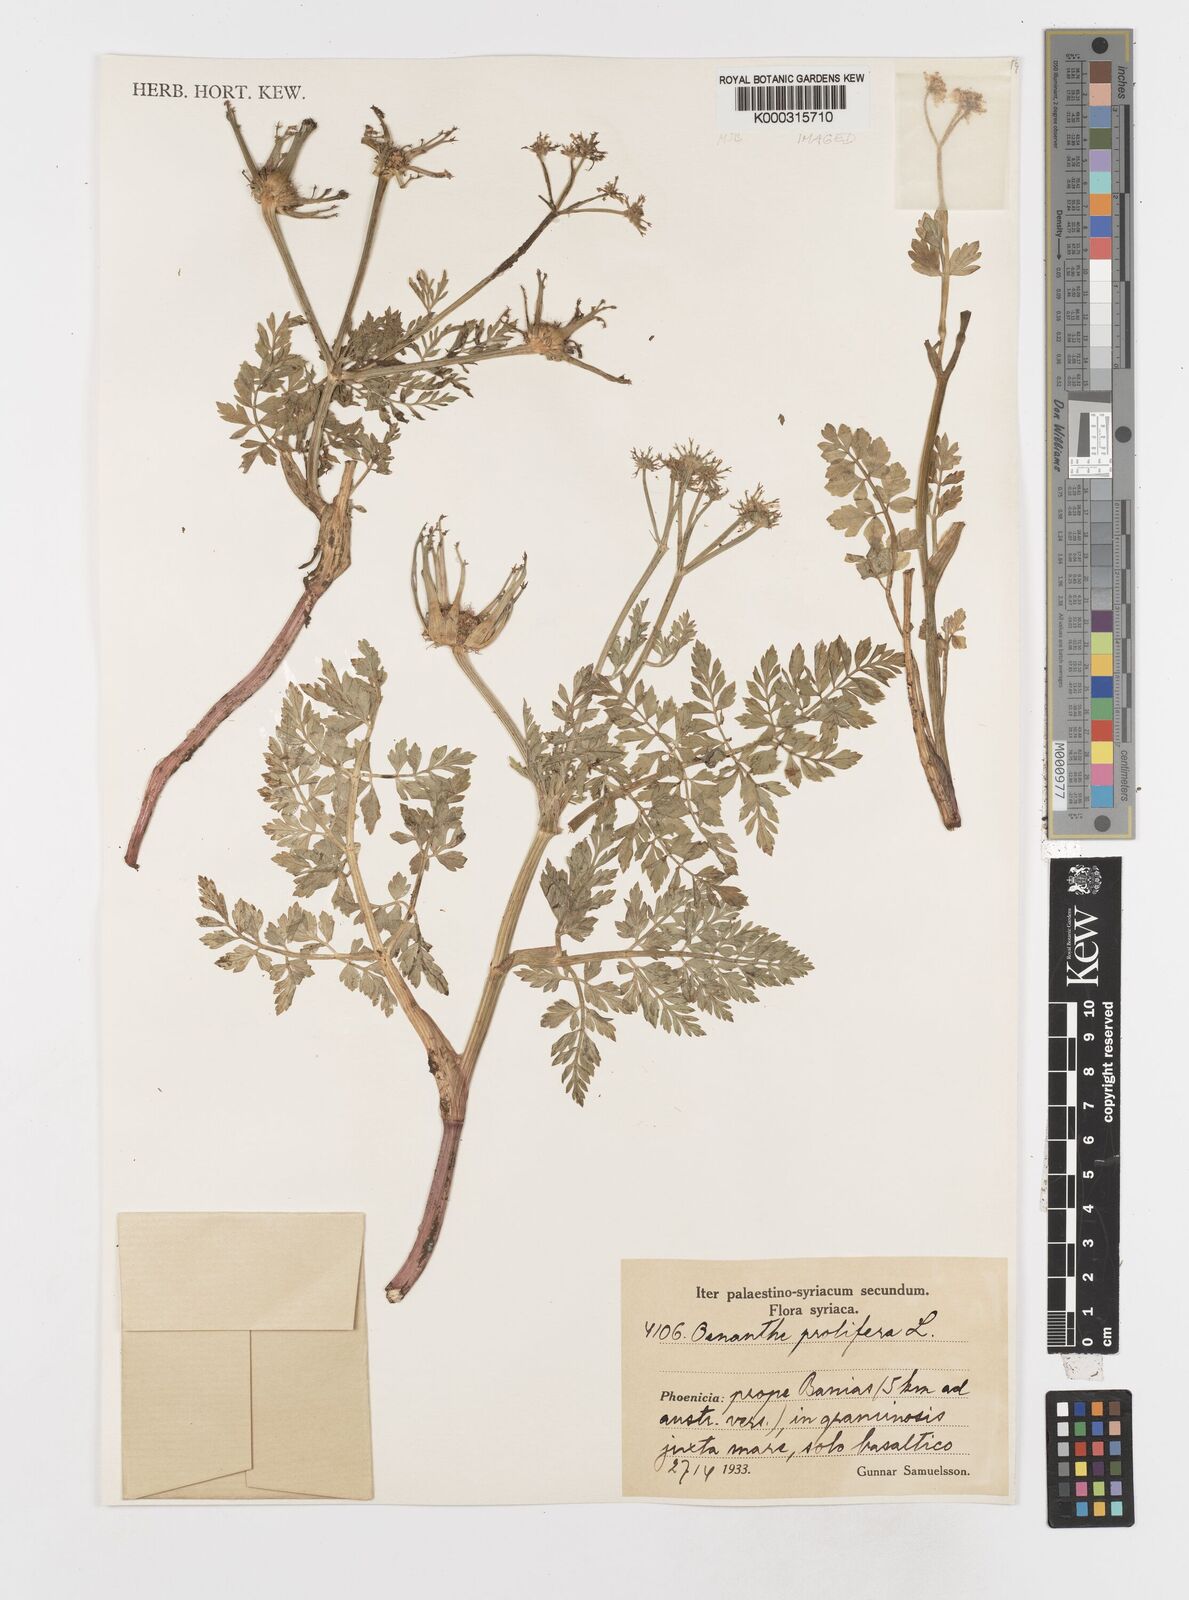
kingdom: Plantae
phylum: Tracheophyta
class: Magnoliopsida
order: Apiales
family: Apiaceae
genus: Oenanthe
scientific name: Oenanthe crocata
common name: Hemlock water-dropwort
